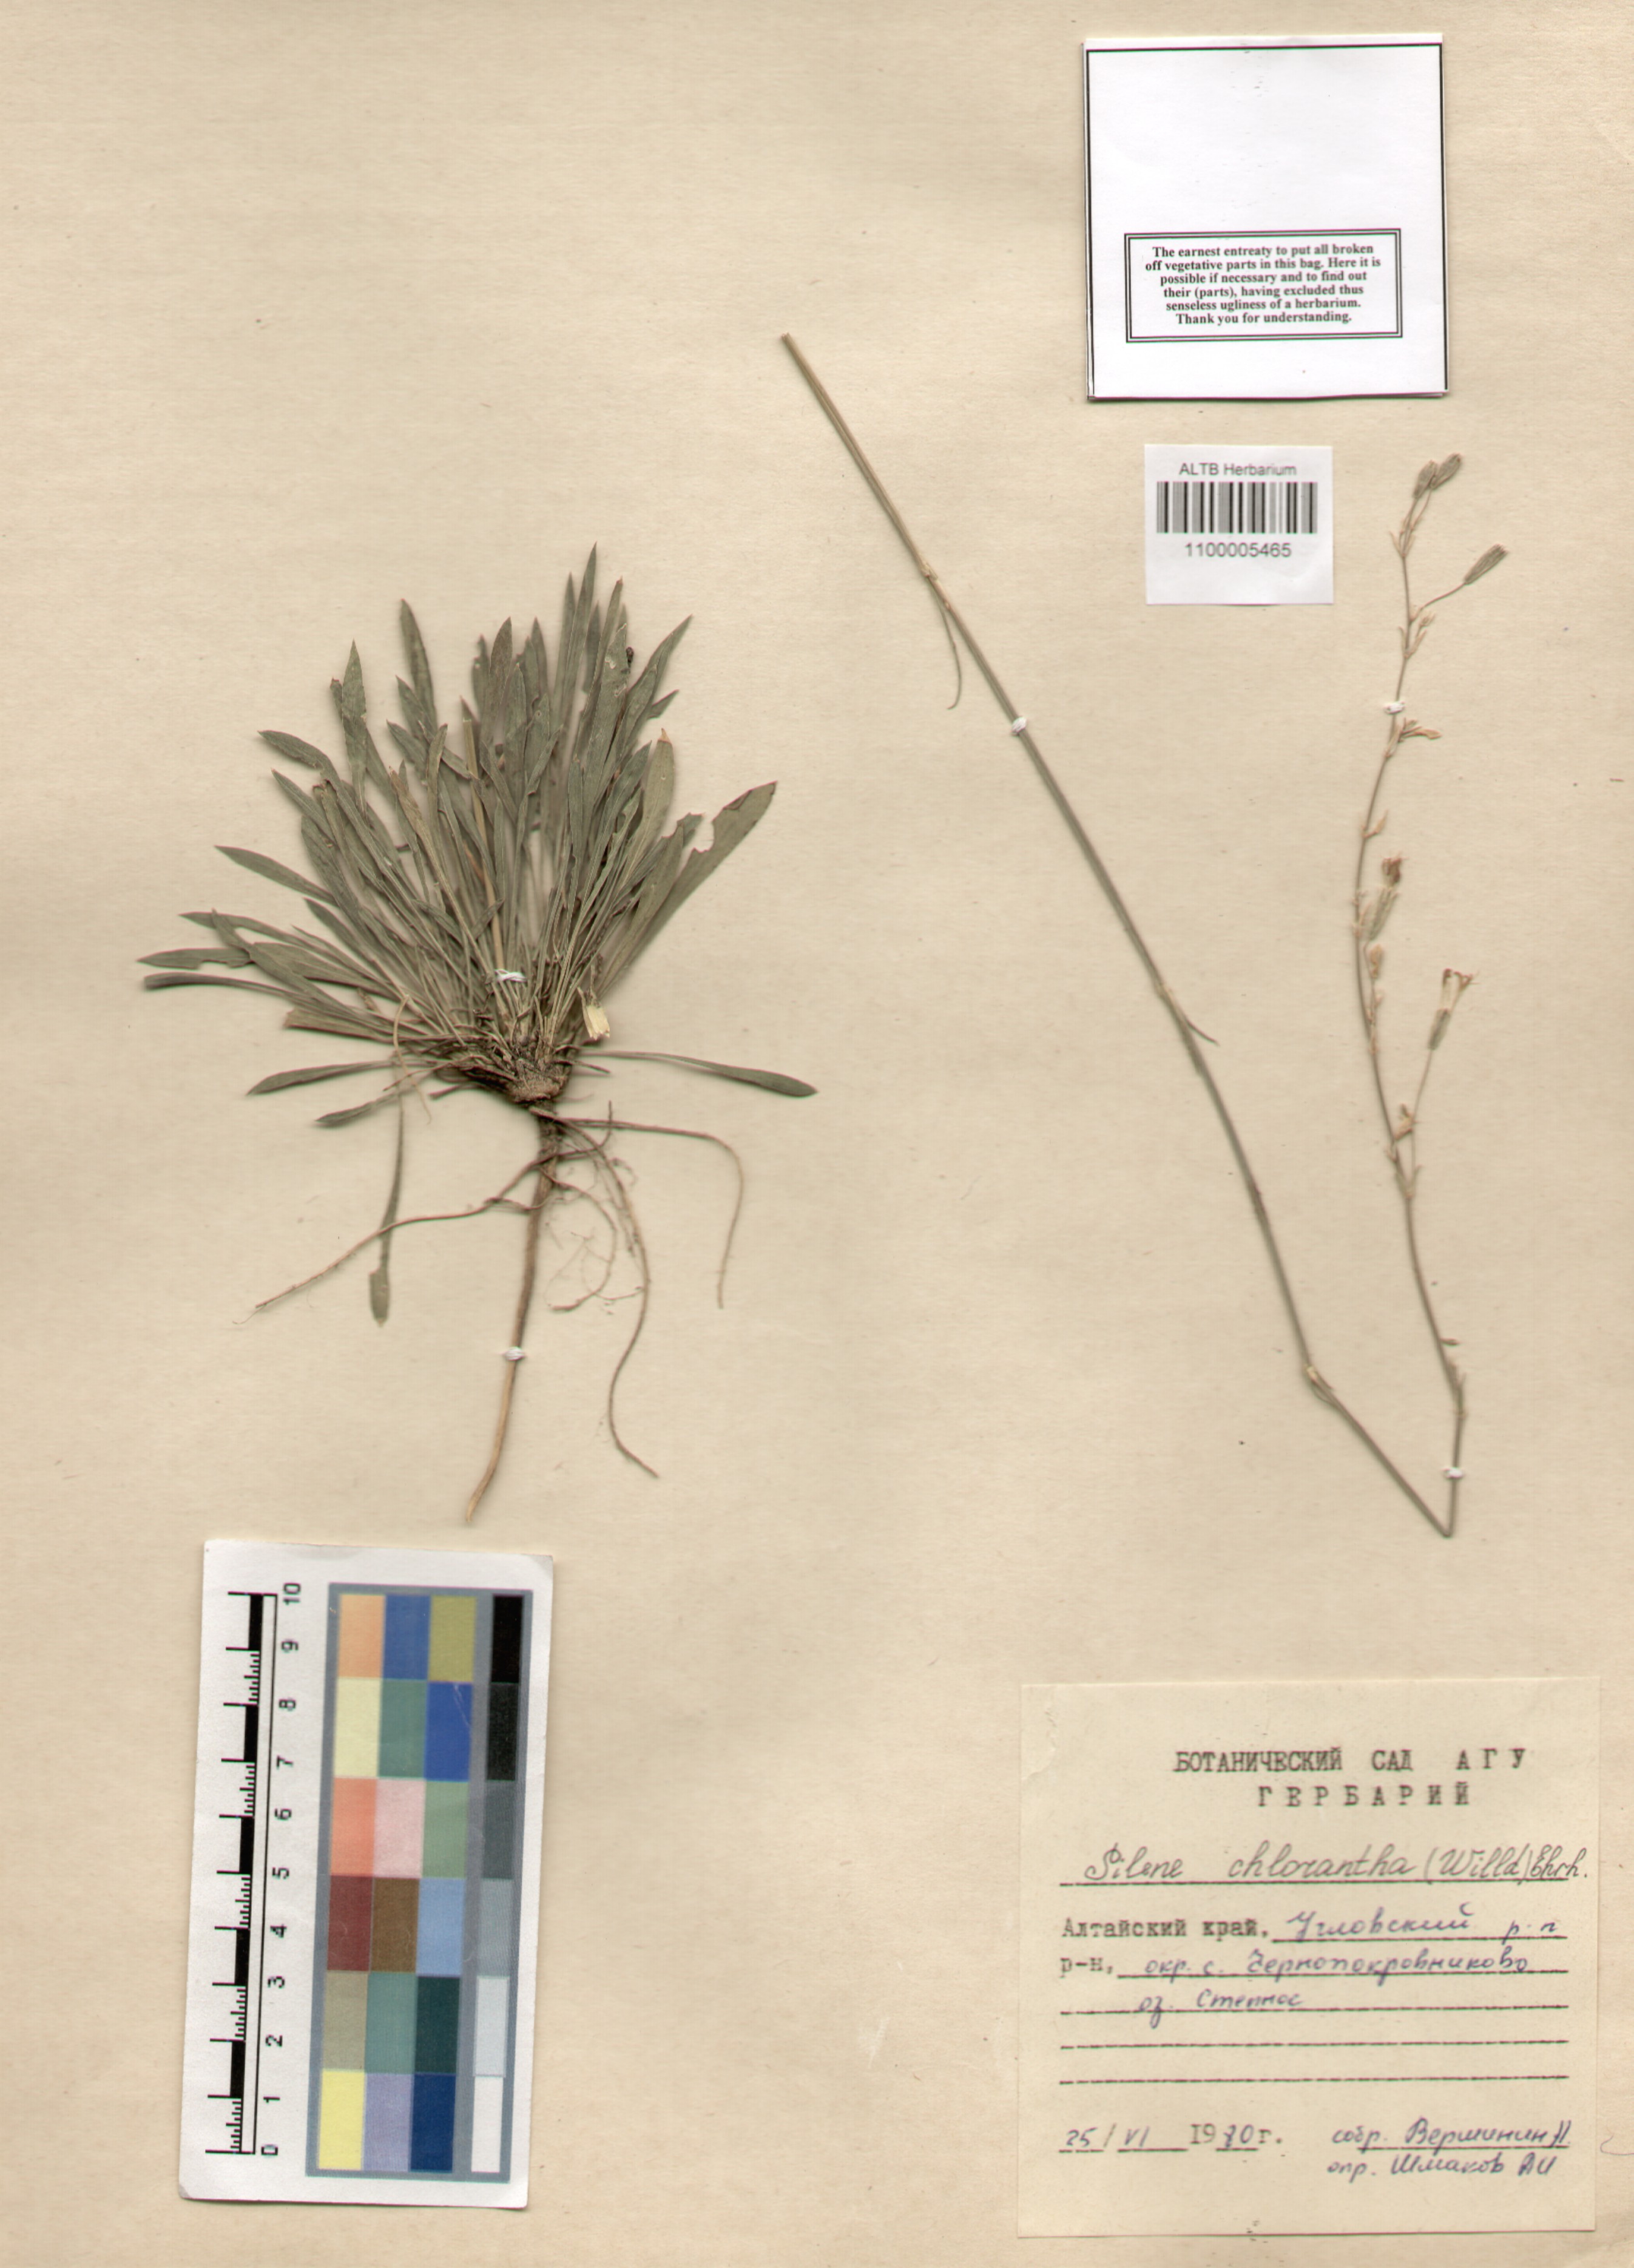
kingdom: Plantae
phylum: Tracheophyta
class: Magnoliopsida
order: Caryophyllales
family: Caryophyllaceae
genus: Silene
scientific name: Silene chlorantha
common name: Yellowgreen catchfly
